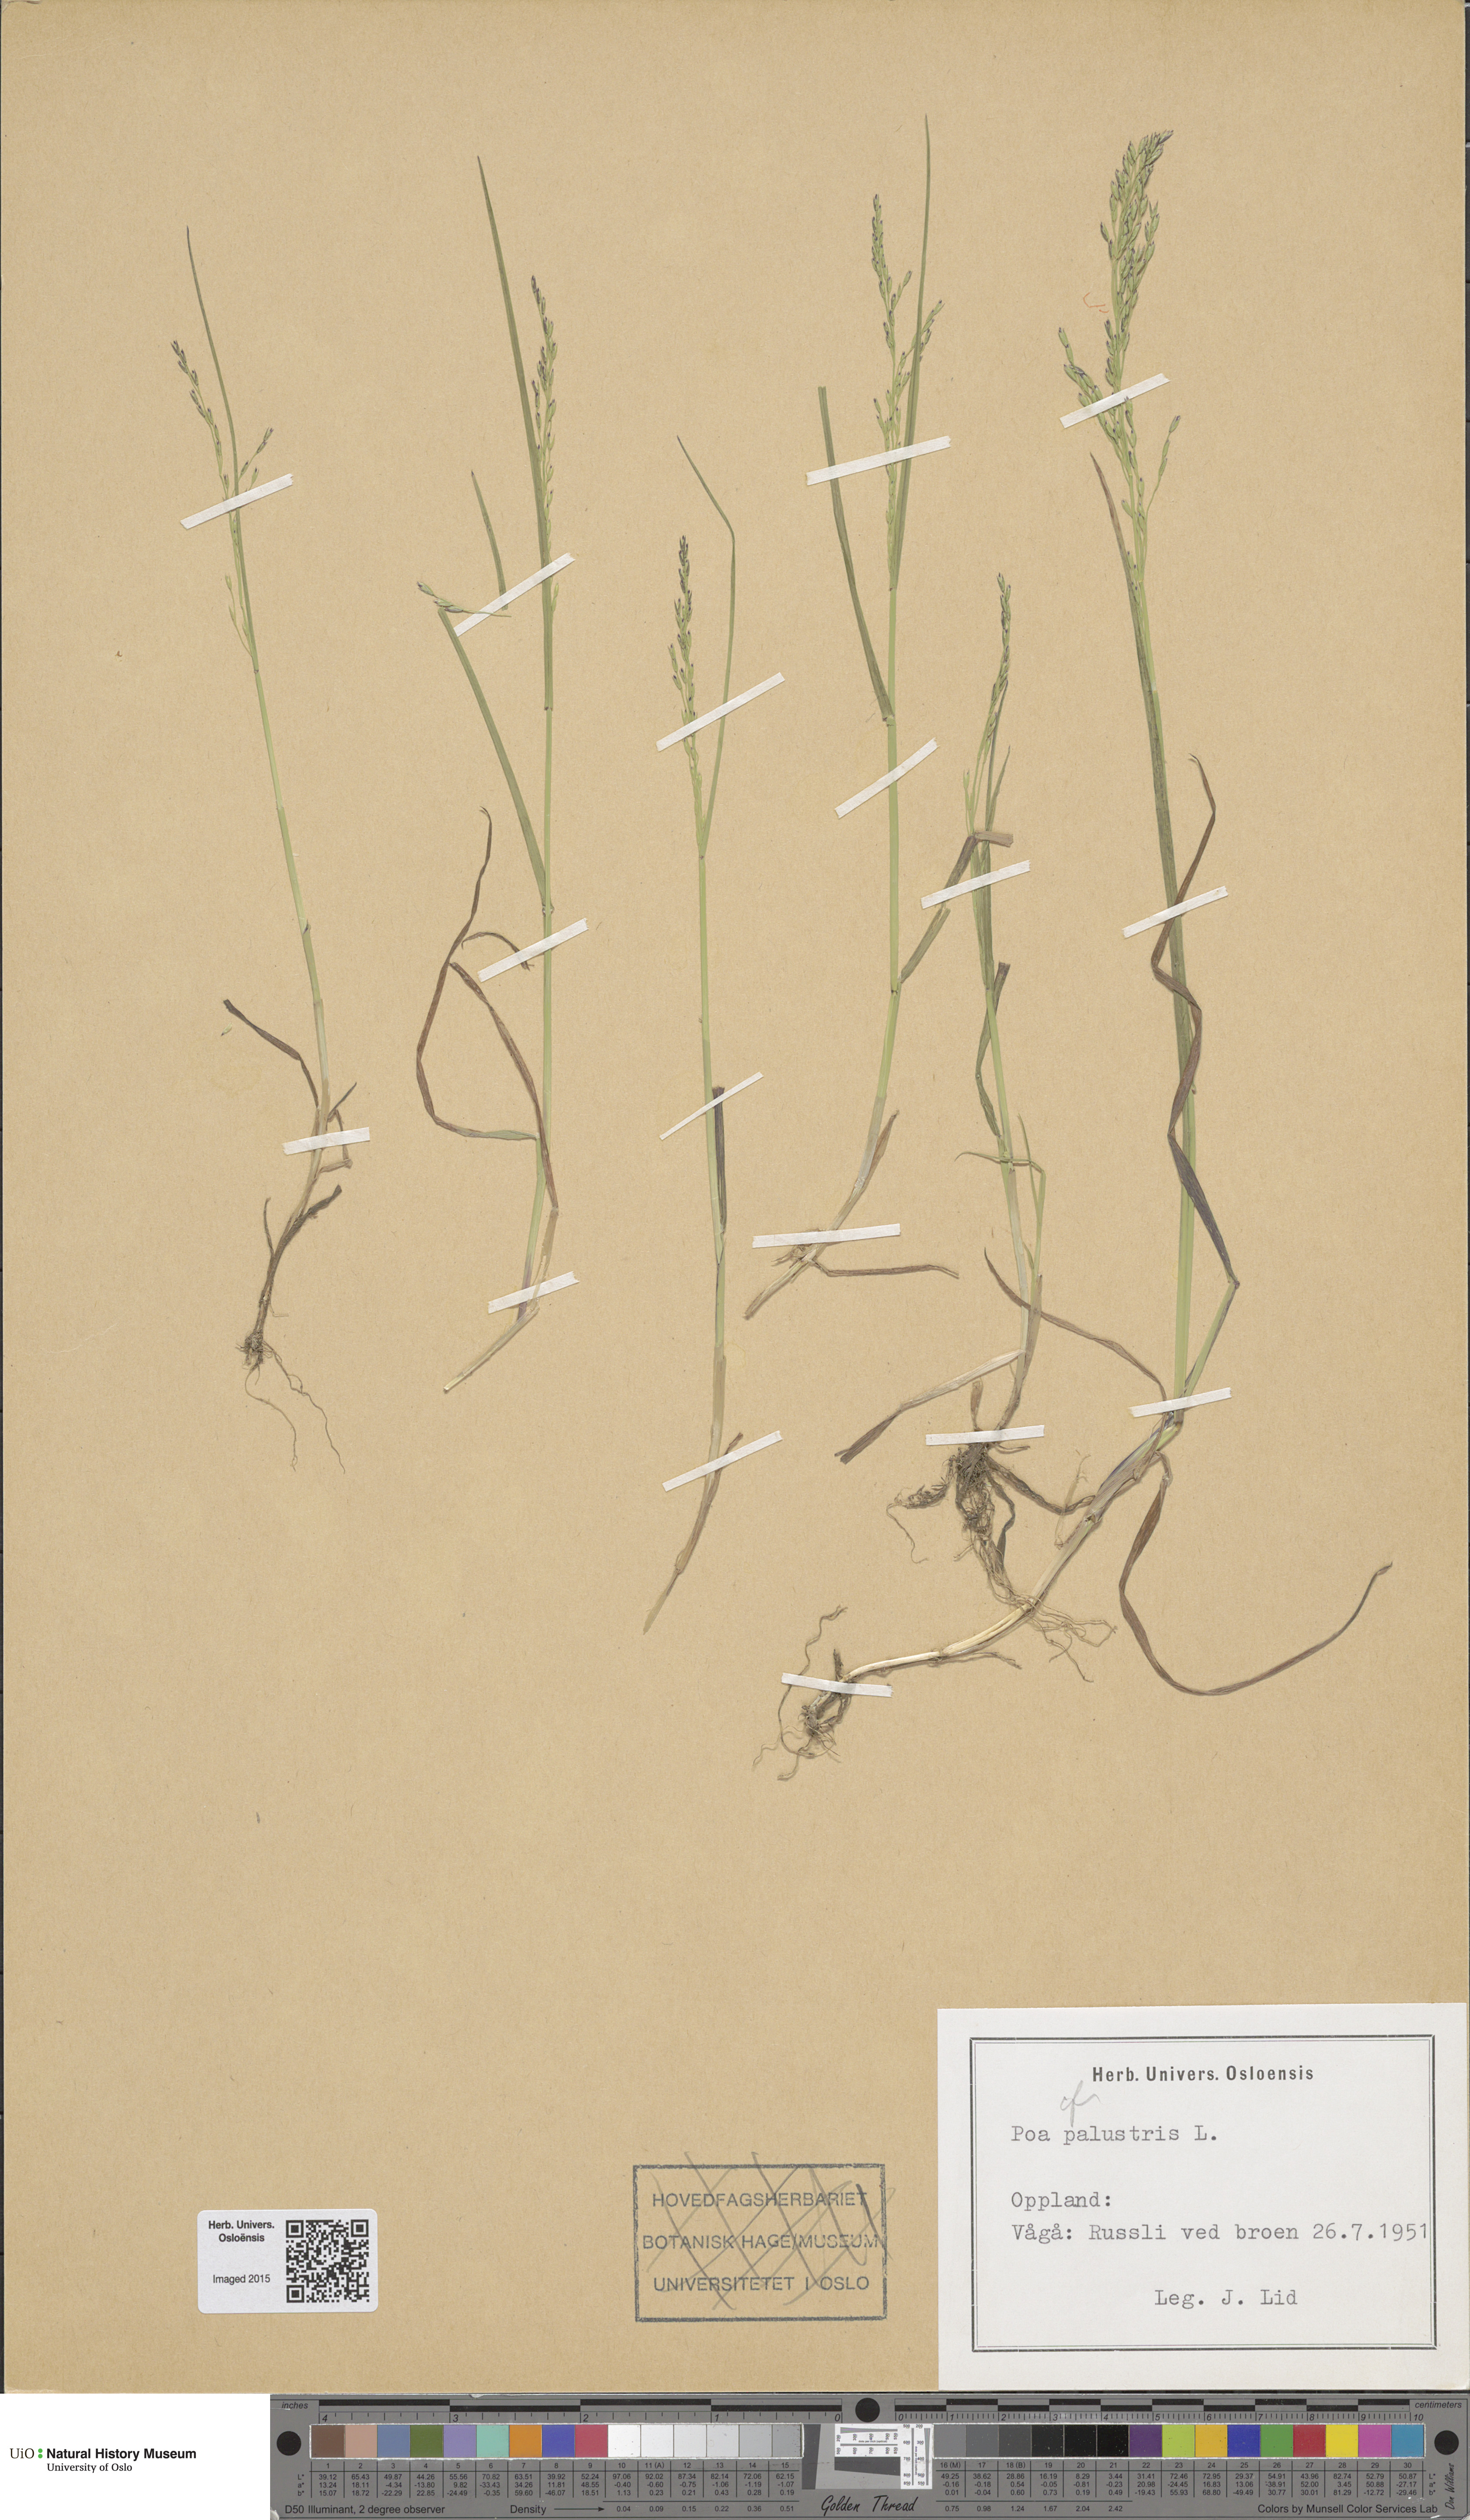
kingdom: Plantae
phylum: Tracheophyta
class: Liliopsida
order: Poales
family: Poaceae
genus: Poa
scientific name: Poa palustris
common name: Swamp meadow-grass
